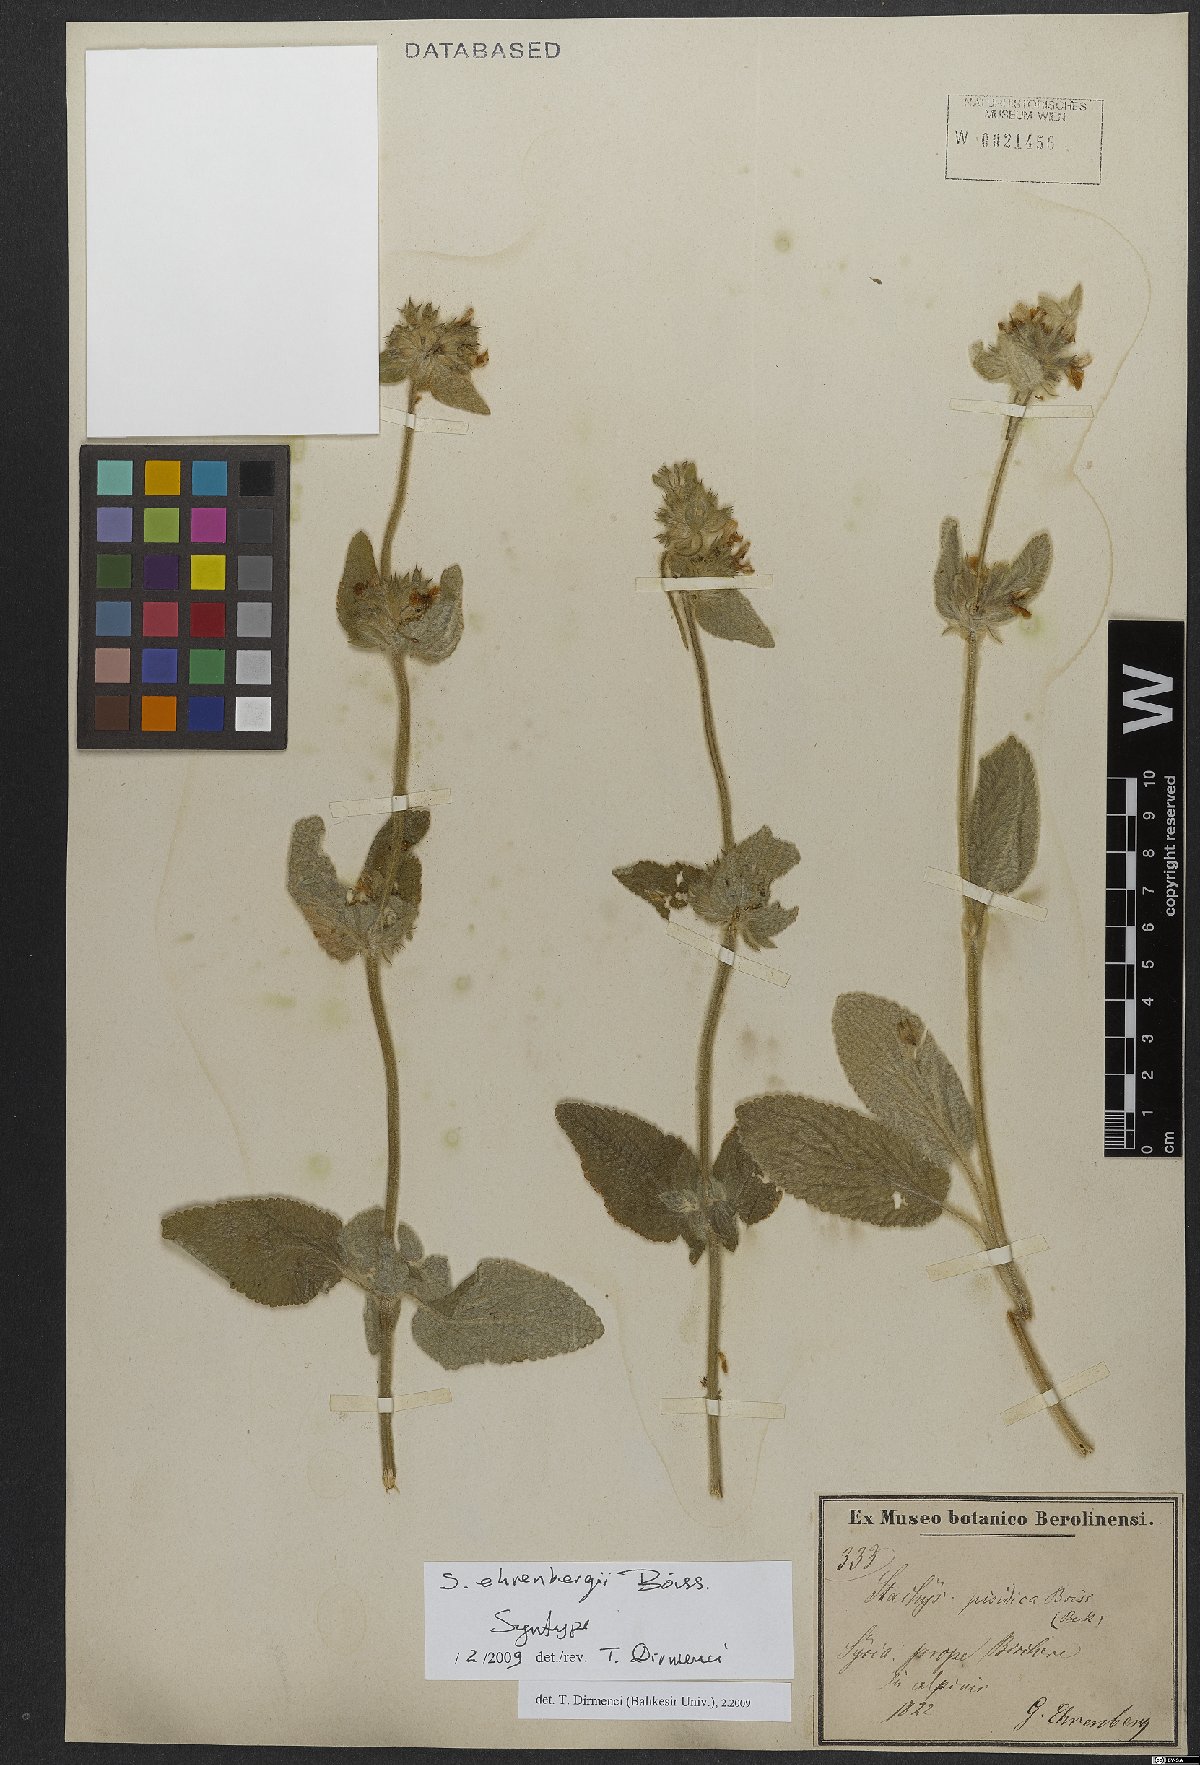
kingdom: Plantae
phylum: Tracheophyta
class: Magnoliopsida
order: Lamiales
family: Lamiaceae
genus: Stachys
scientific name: Stachys ehrenbergii
